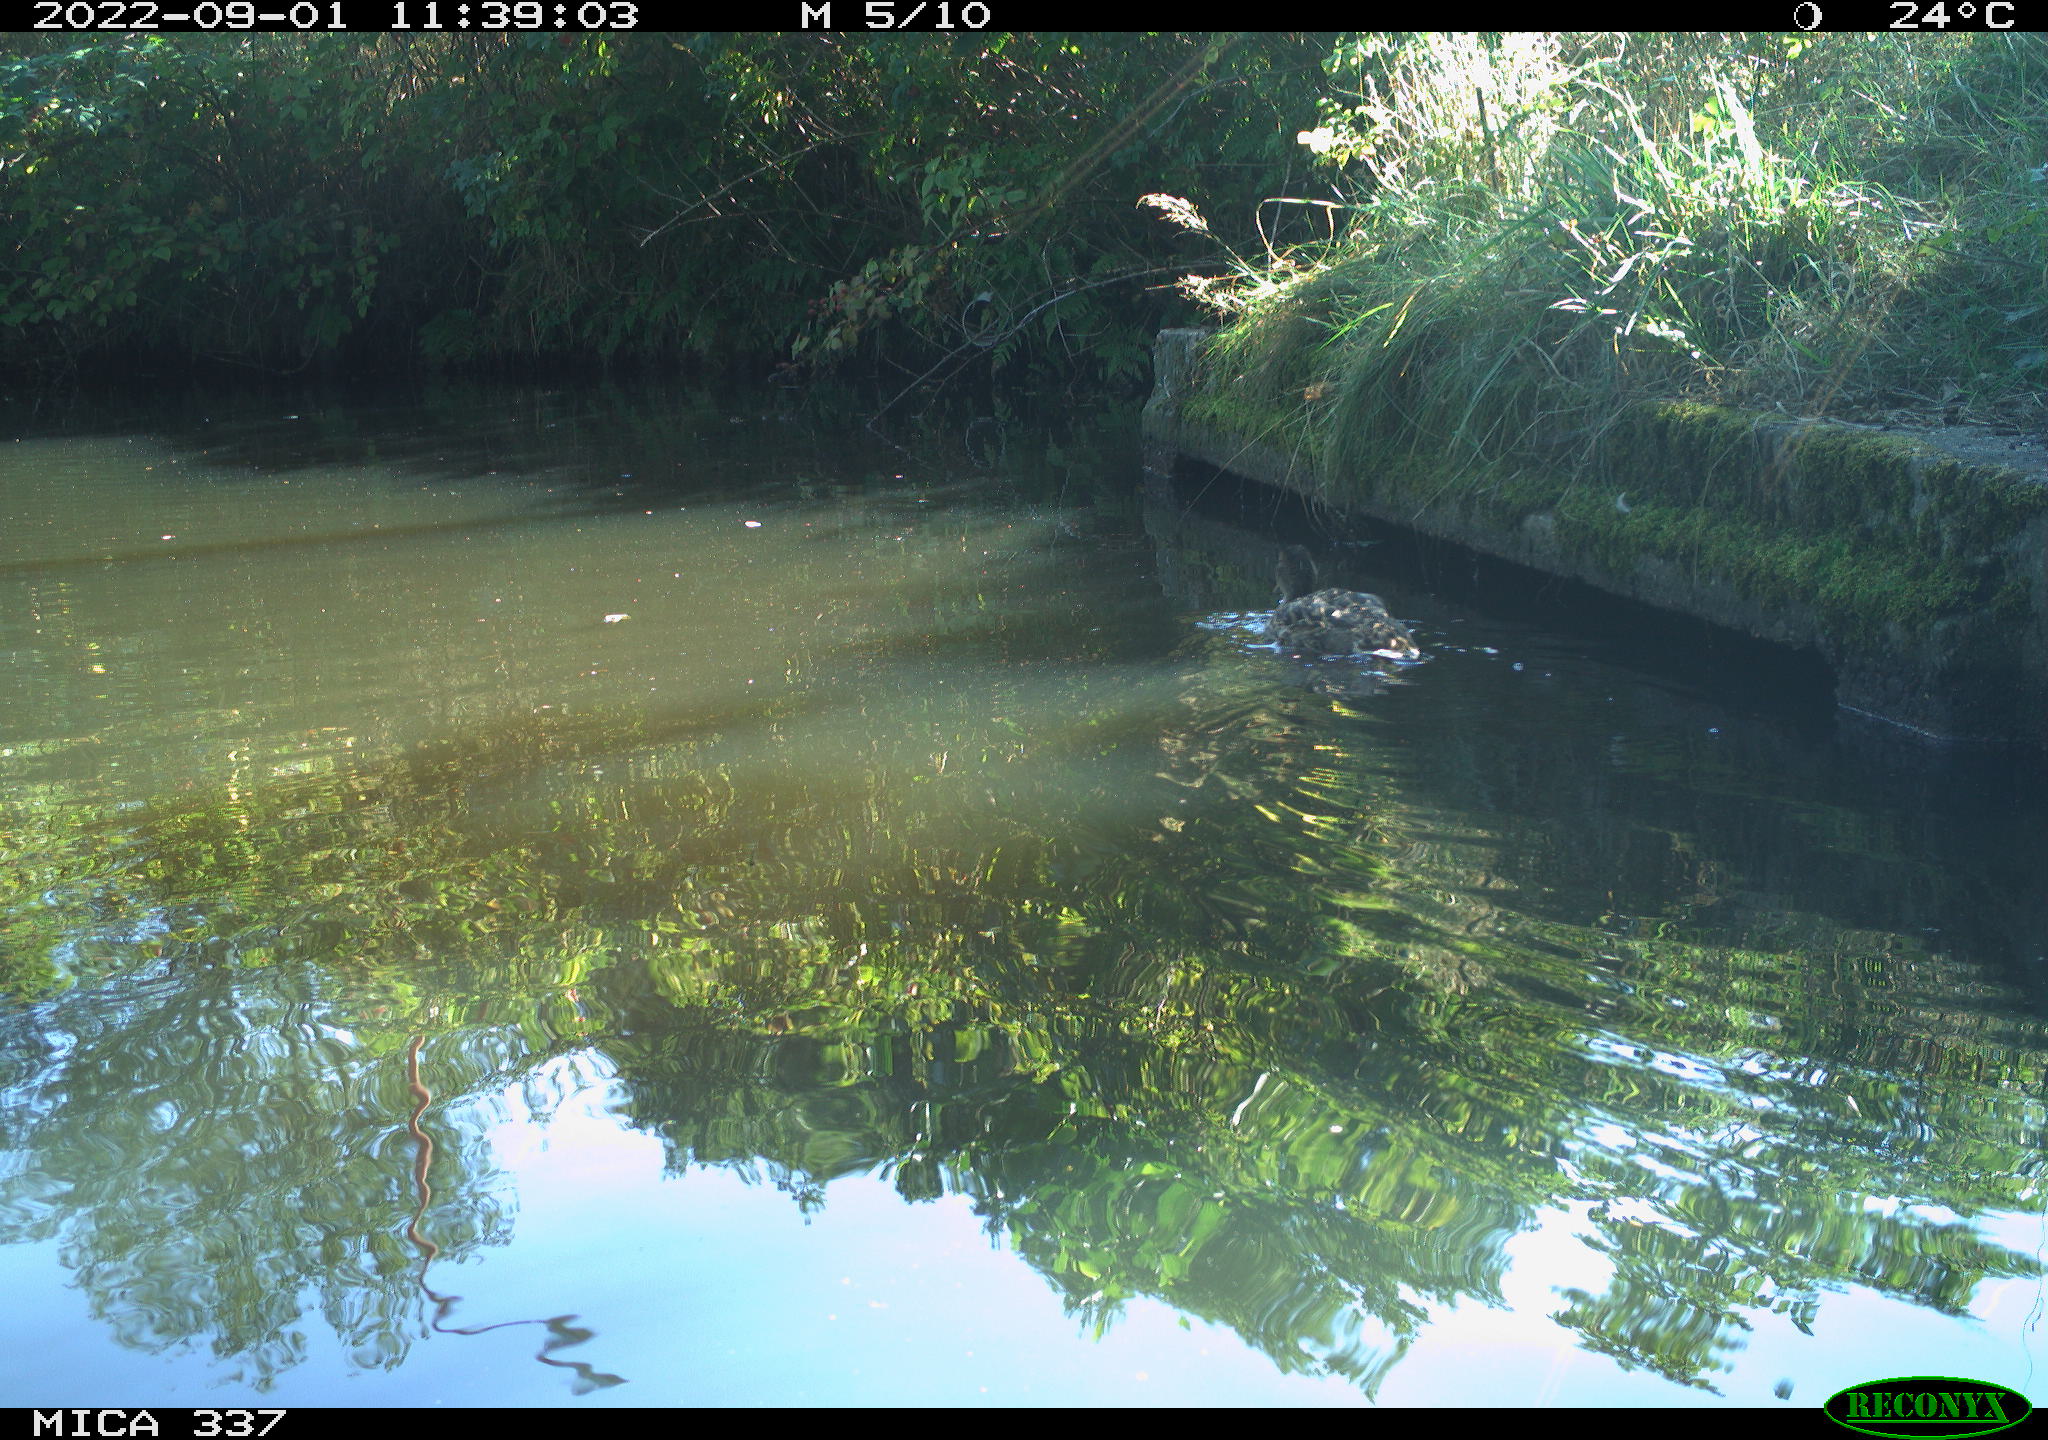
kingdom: Animalia
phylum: Chordata
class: Aves
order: Anseriformes
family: Anatidae
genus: Anas
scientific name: Anas platyrhynchos
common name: Mallard
